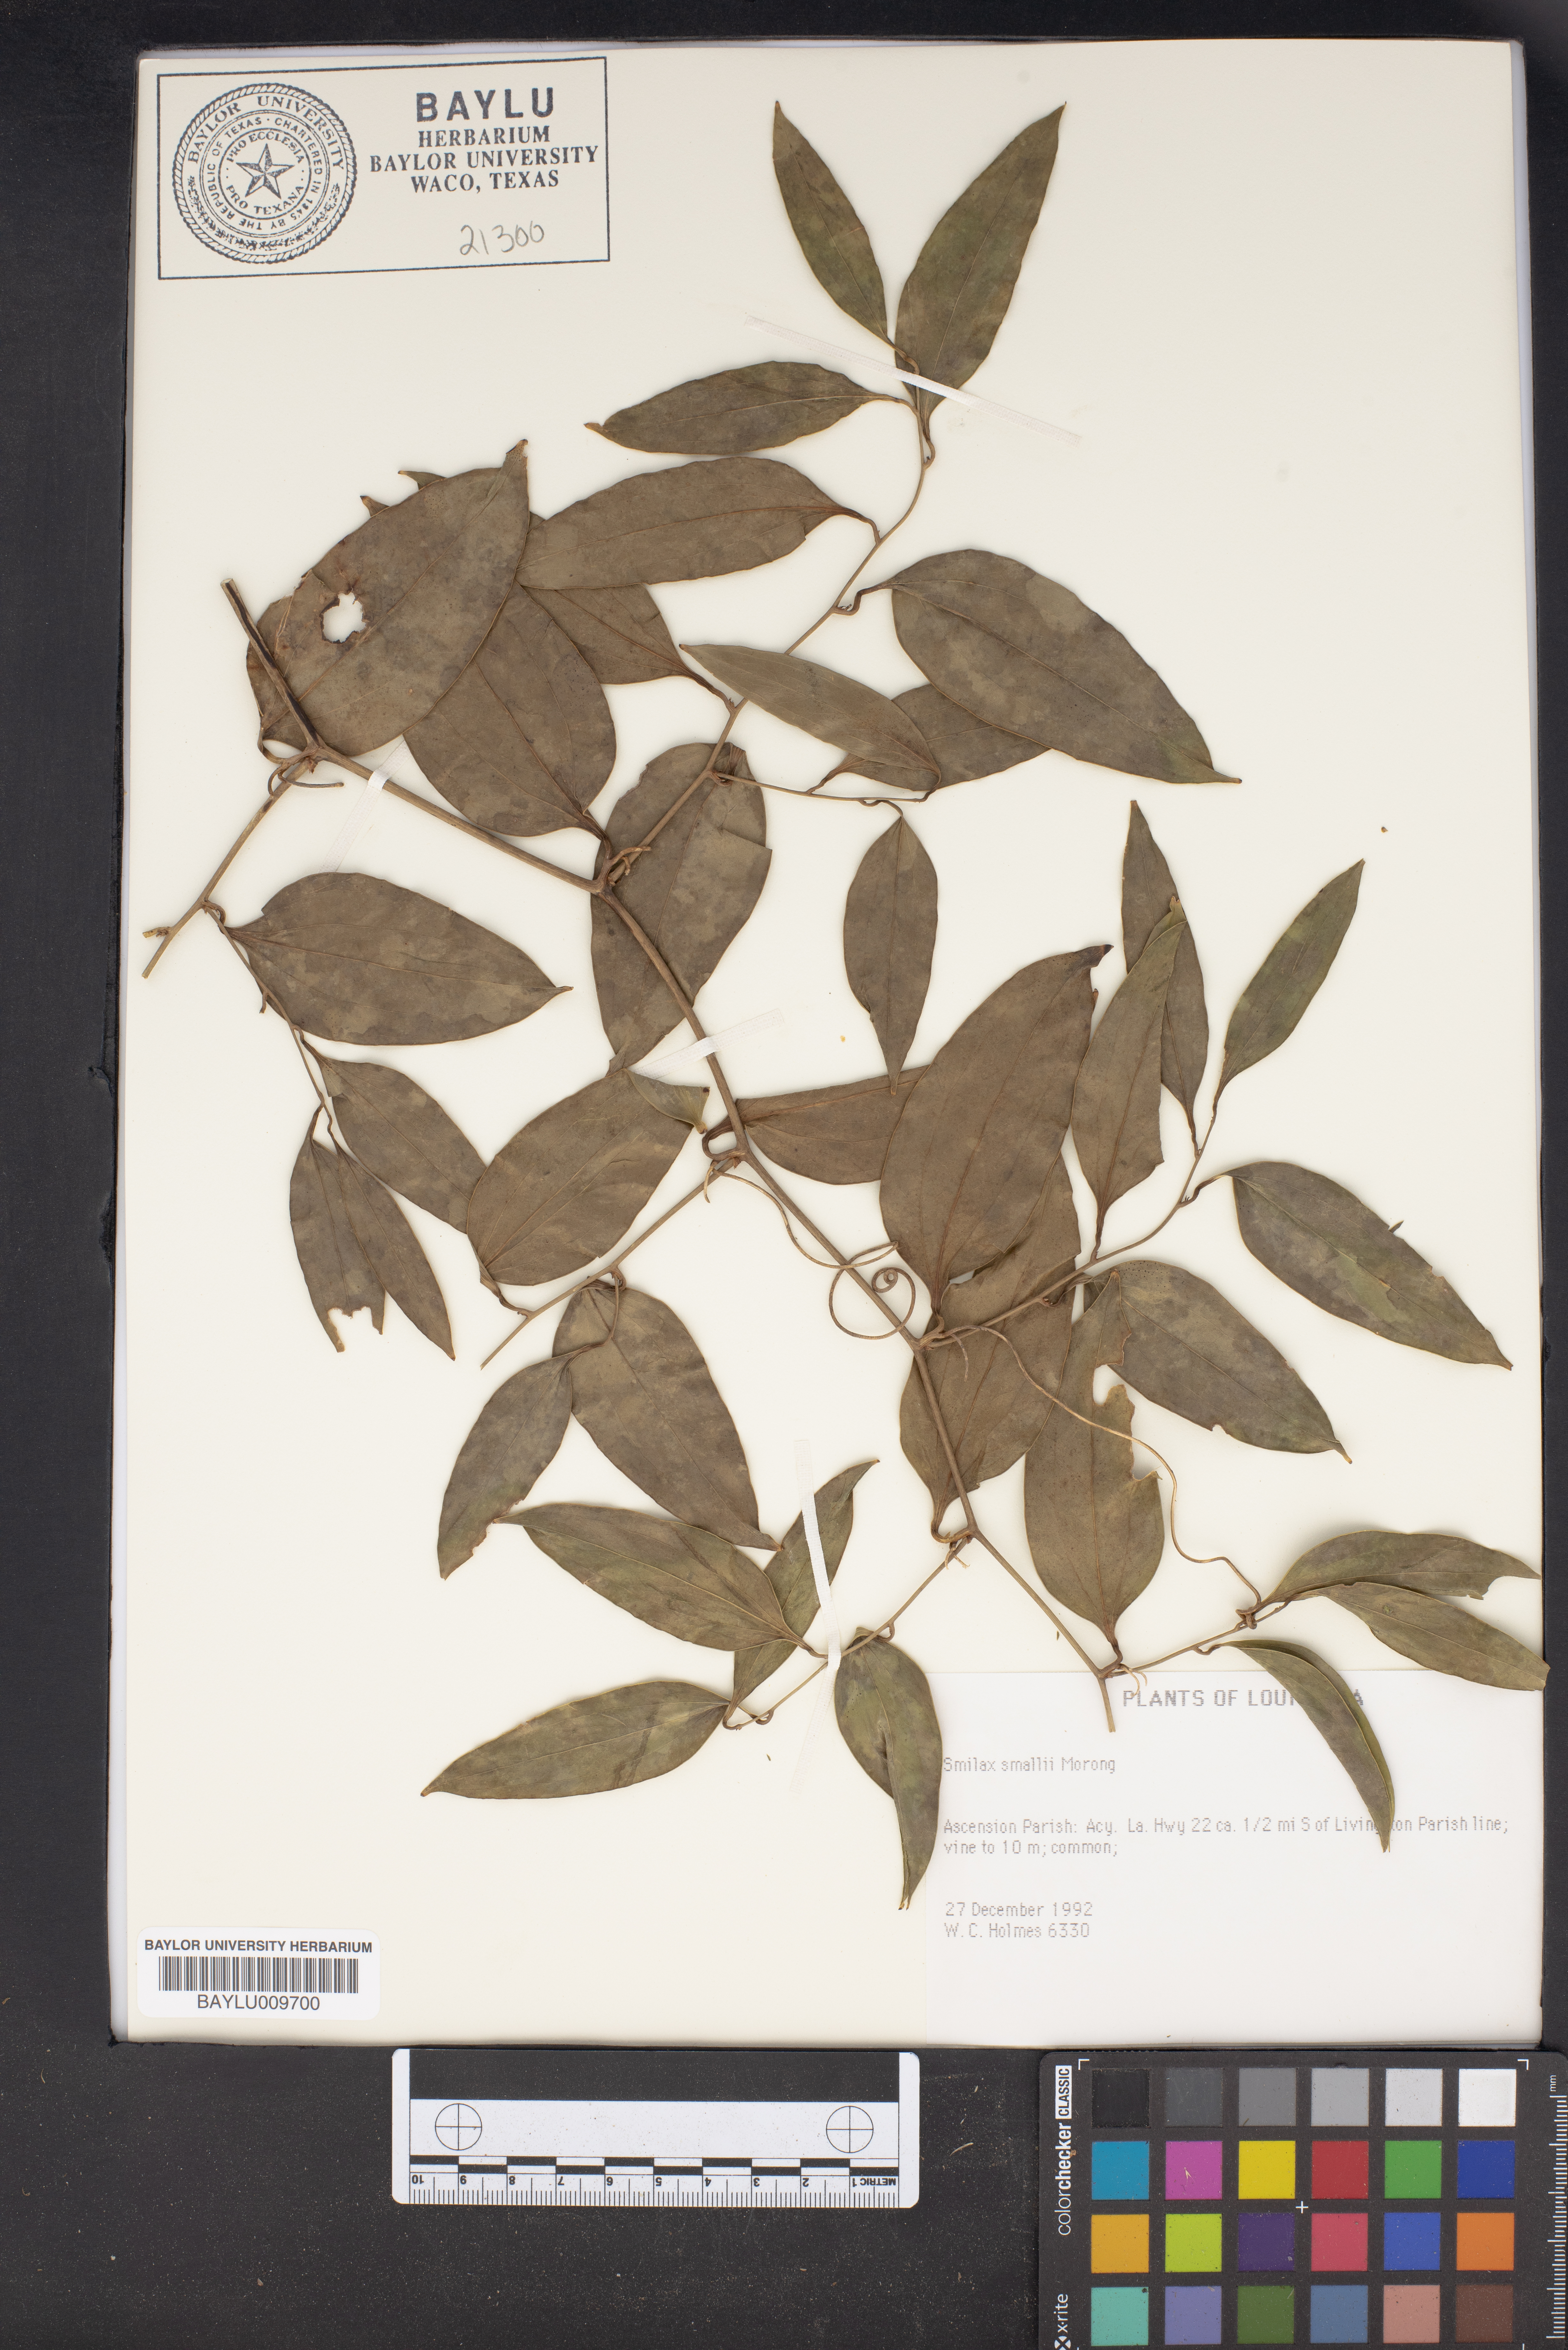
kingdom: Plantae
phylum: Tracheophyta
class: Liliopsida
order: Liliales
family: Smilacaceae
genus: Smilax
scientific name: Smilax maritima
